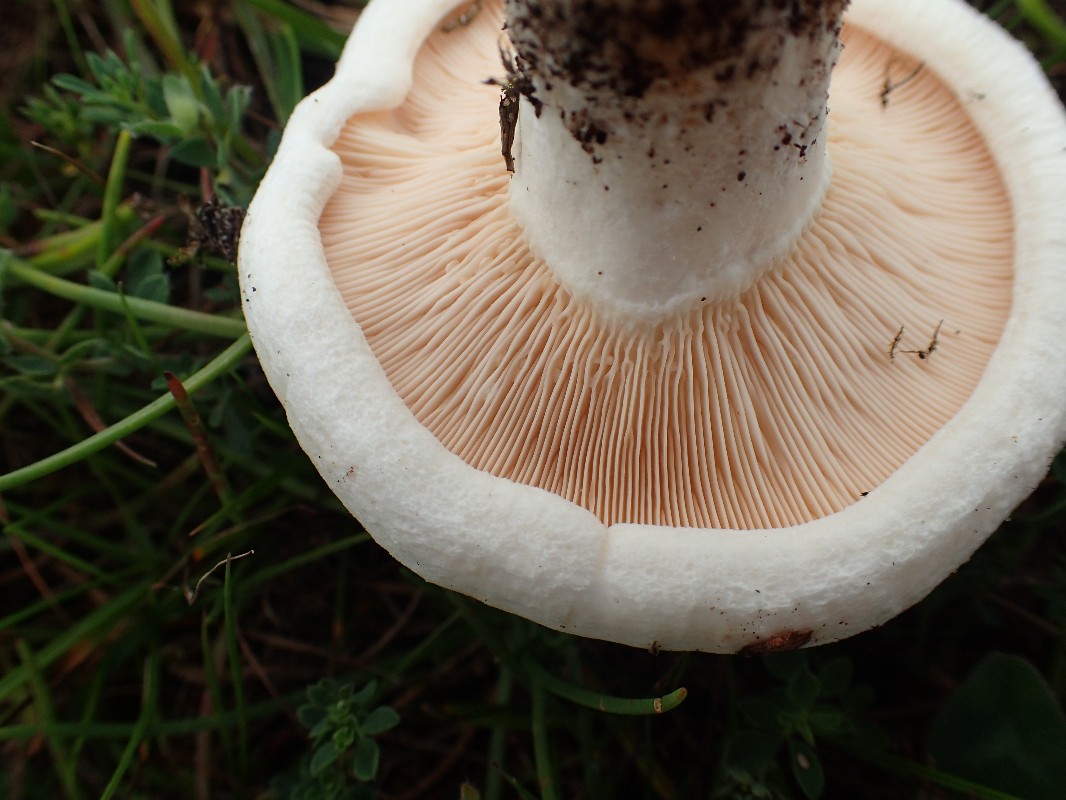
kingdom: Fungi
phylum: Basidiomycota
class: Agaricomycetes
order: Russulales
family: Russulaceae
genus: Lactarius
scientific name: Lactarius controversus
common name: rosabladet mælkehat
